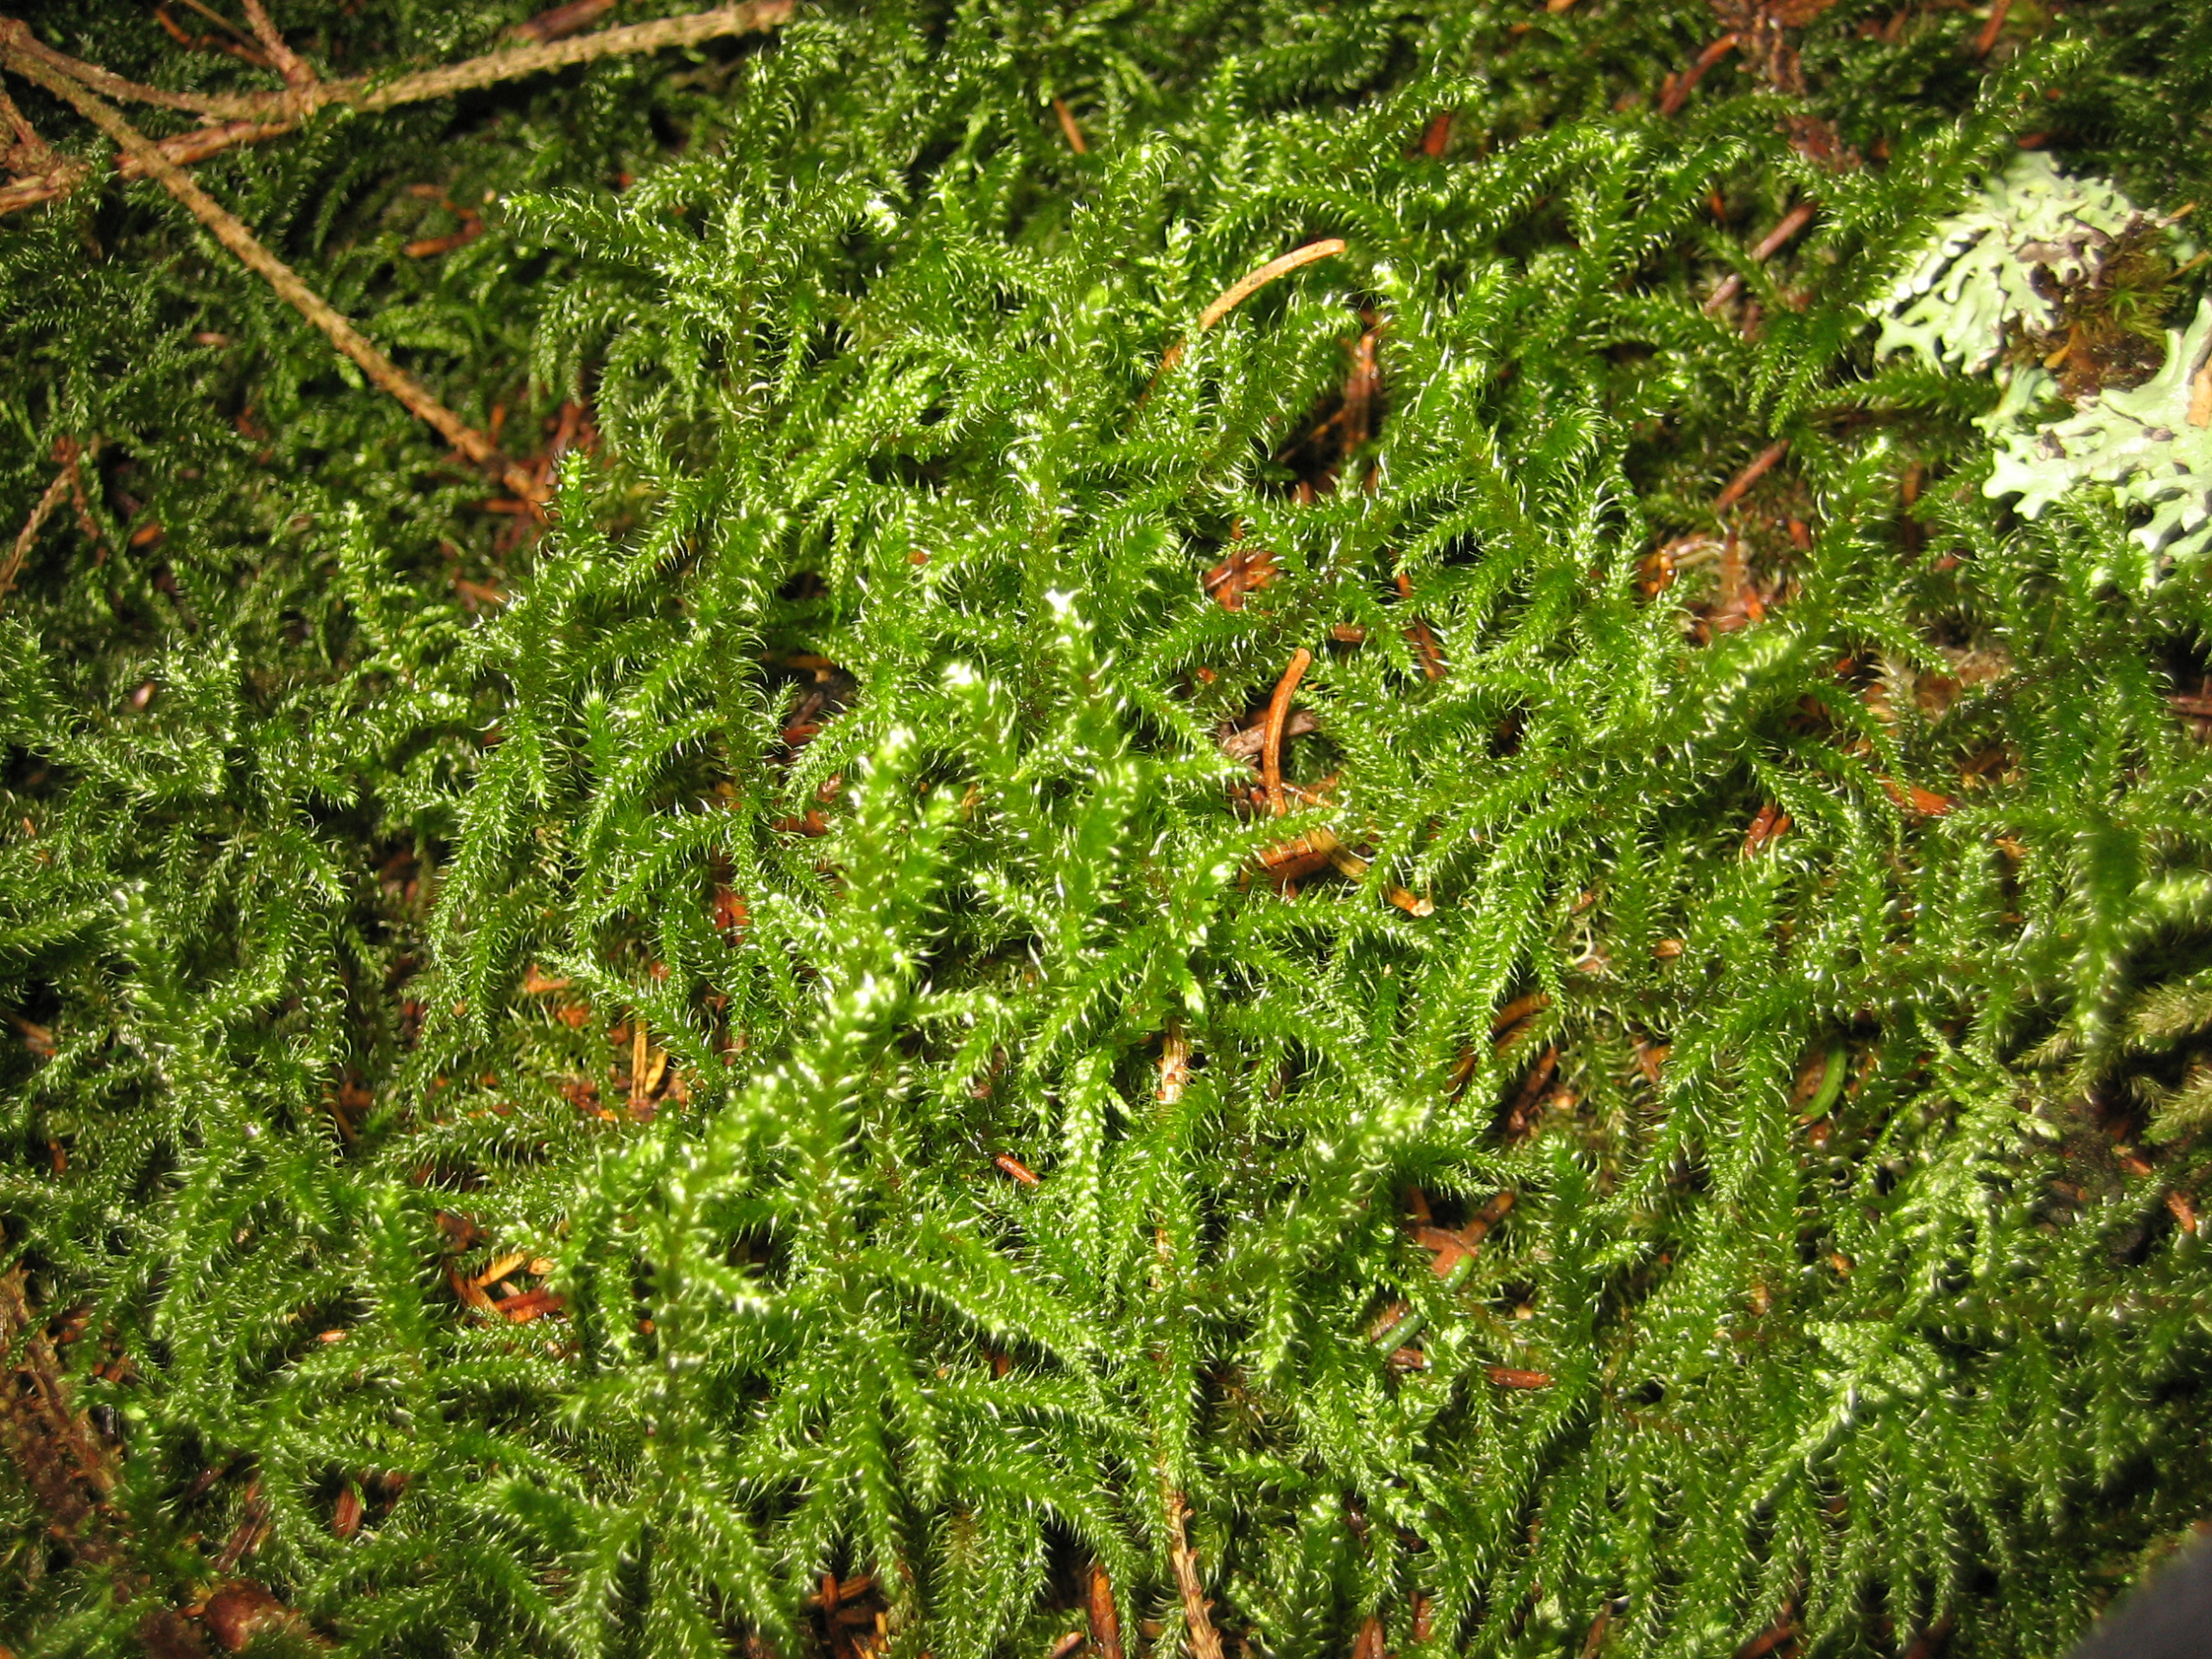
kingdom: Plantae
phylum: Bryophyta
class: Bryopsida
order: Hypnales
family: Hylocomiaceae
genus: Rhytidiadelphus
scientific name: Rhytidiadelphus loreus
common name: Ulvefod-kransemos
